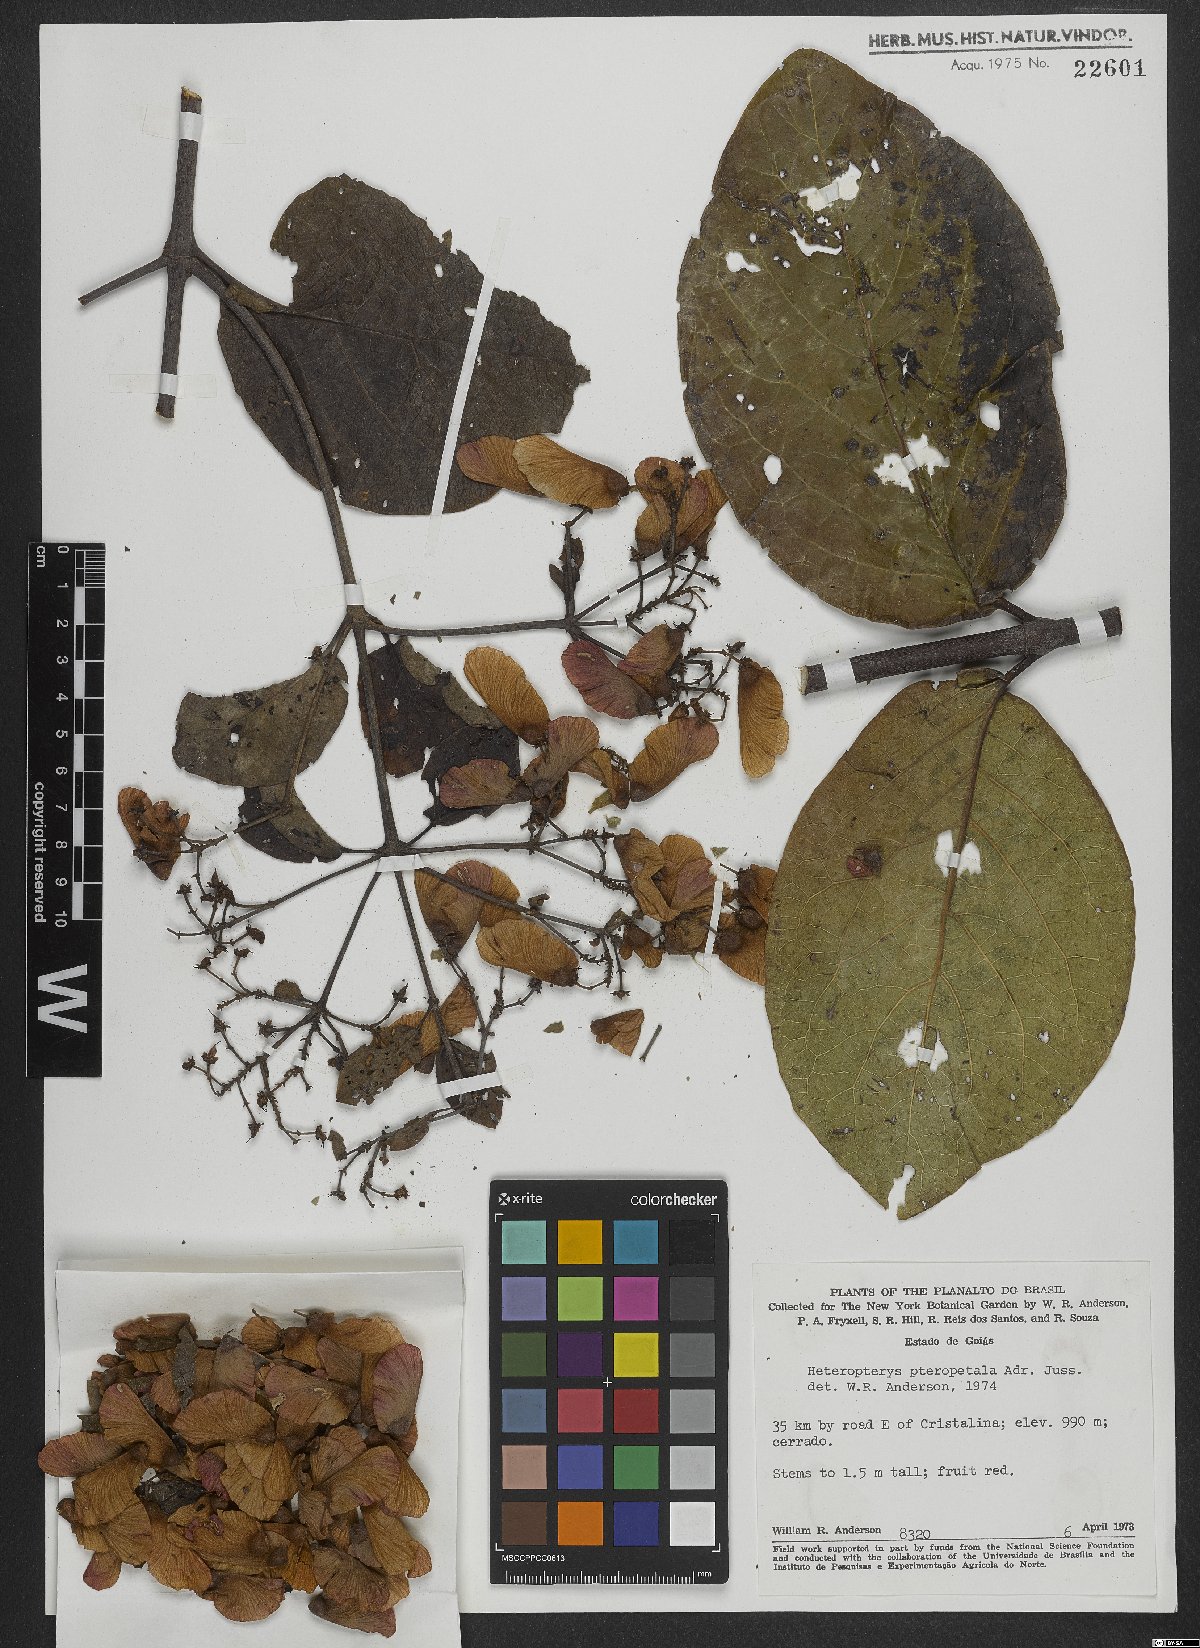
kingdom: Plantae
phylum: Tracheophyta
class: Magnoliopsida
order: Malpighiales
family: Malpighiaceae
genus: Heteropterys
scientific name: Heteropterys pteropetala
